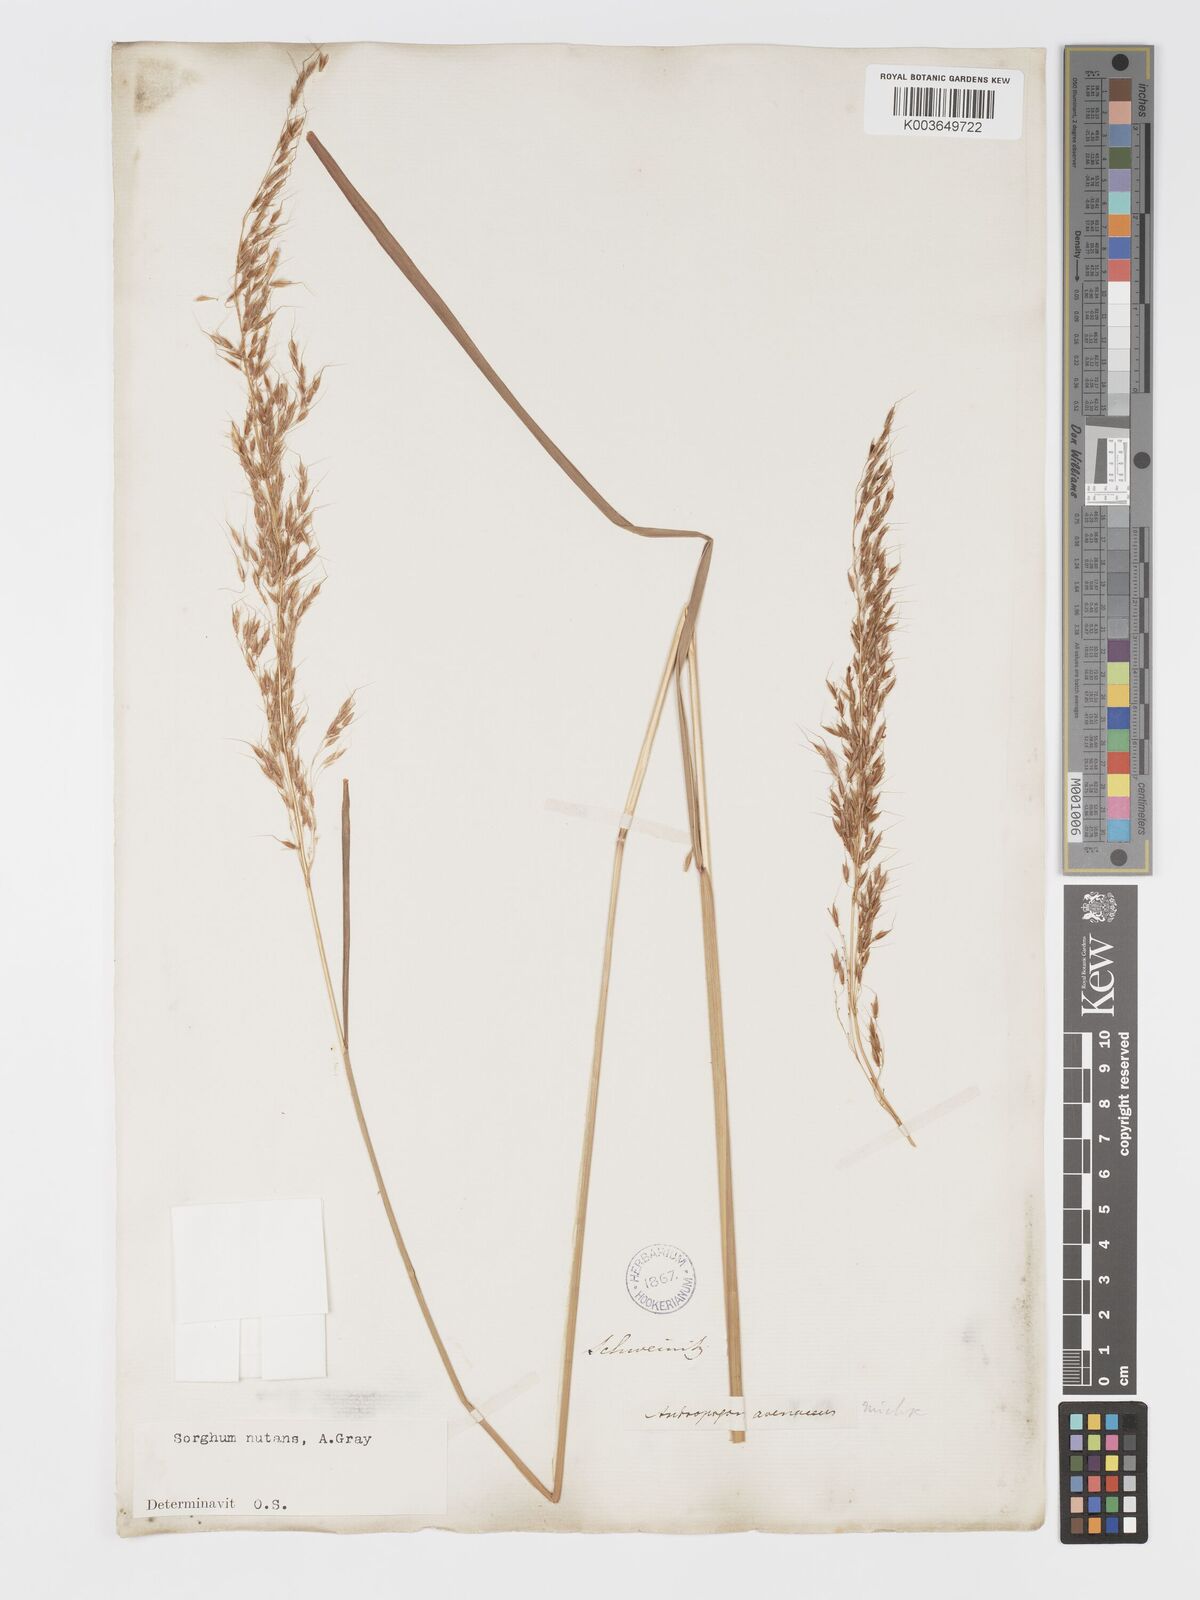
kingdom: Plantae
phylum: Tracheophyta
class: Liliopsida
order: Poales
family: Poaceae
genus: Sorghastrum
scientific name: Sorghastrum nutans
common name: Indian grass
